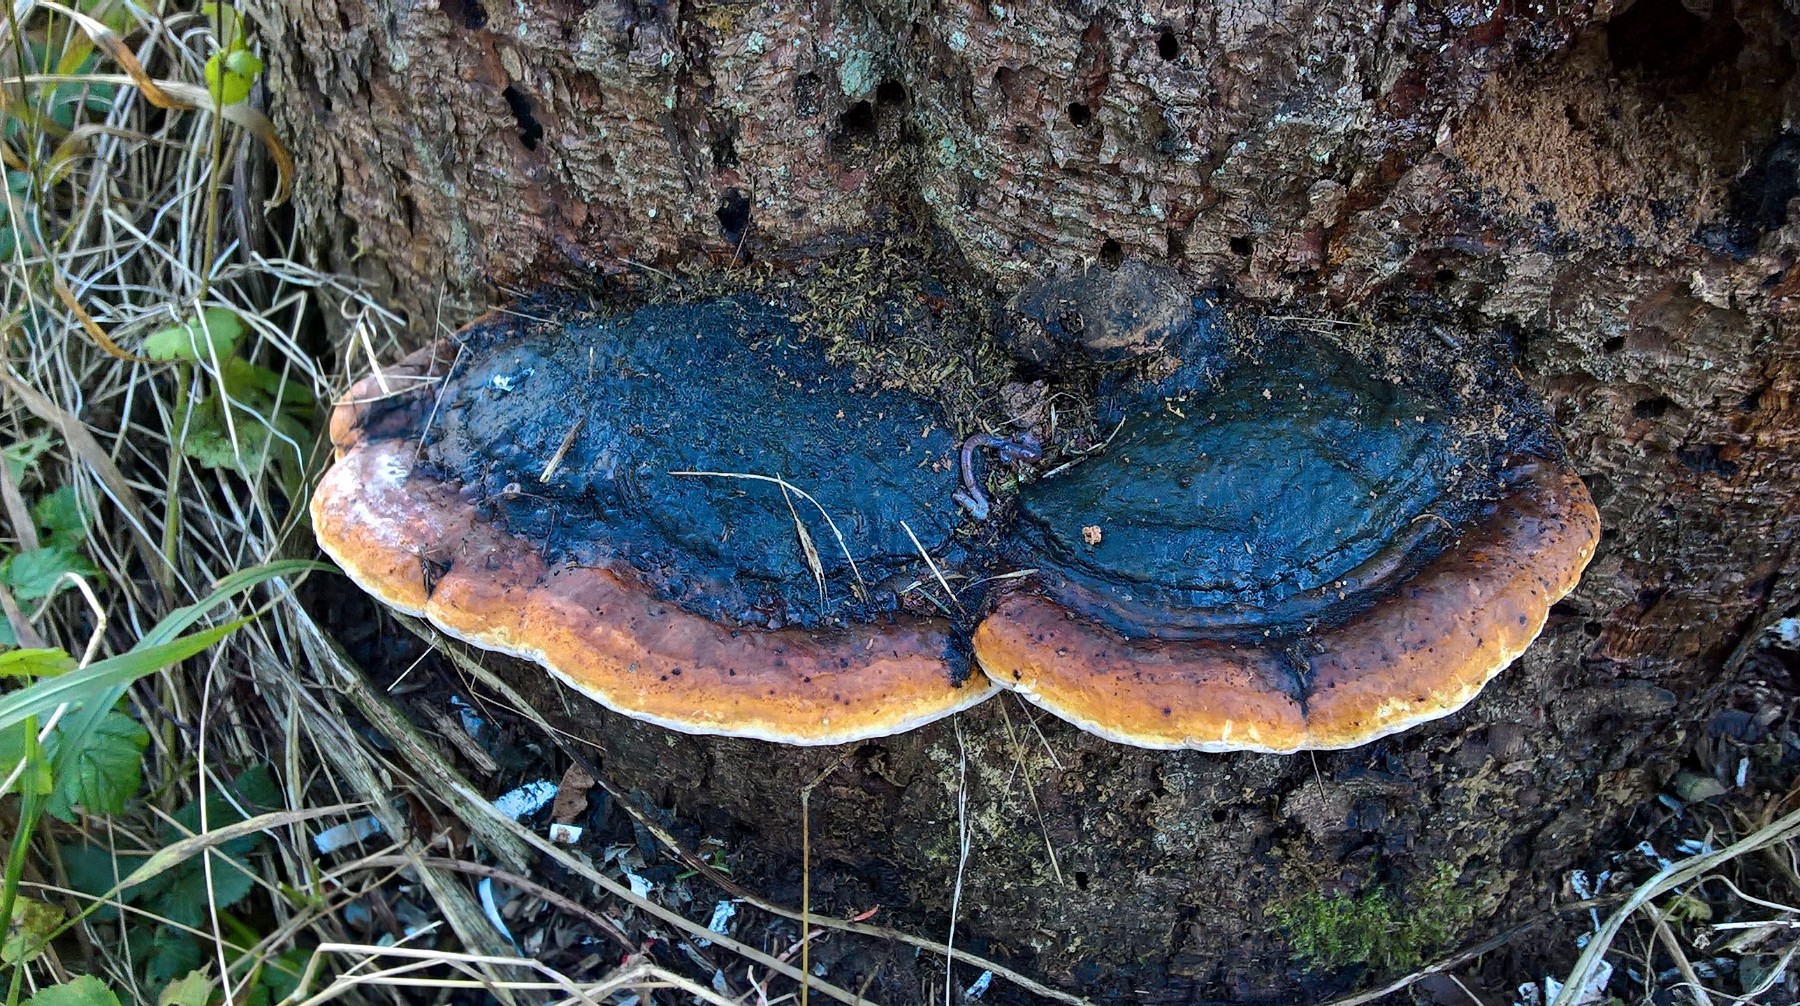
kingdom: Fungi
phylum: Basidiomycota
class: Agaricomycetes
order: Polyporales
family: Fomitopsidaceae
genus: Fomitopsis
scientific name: Fomitopsis pinicola
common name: randbæltet hovporesvamp
